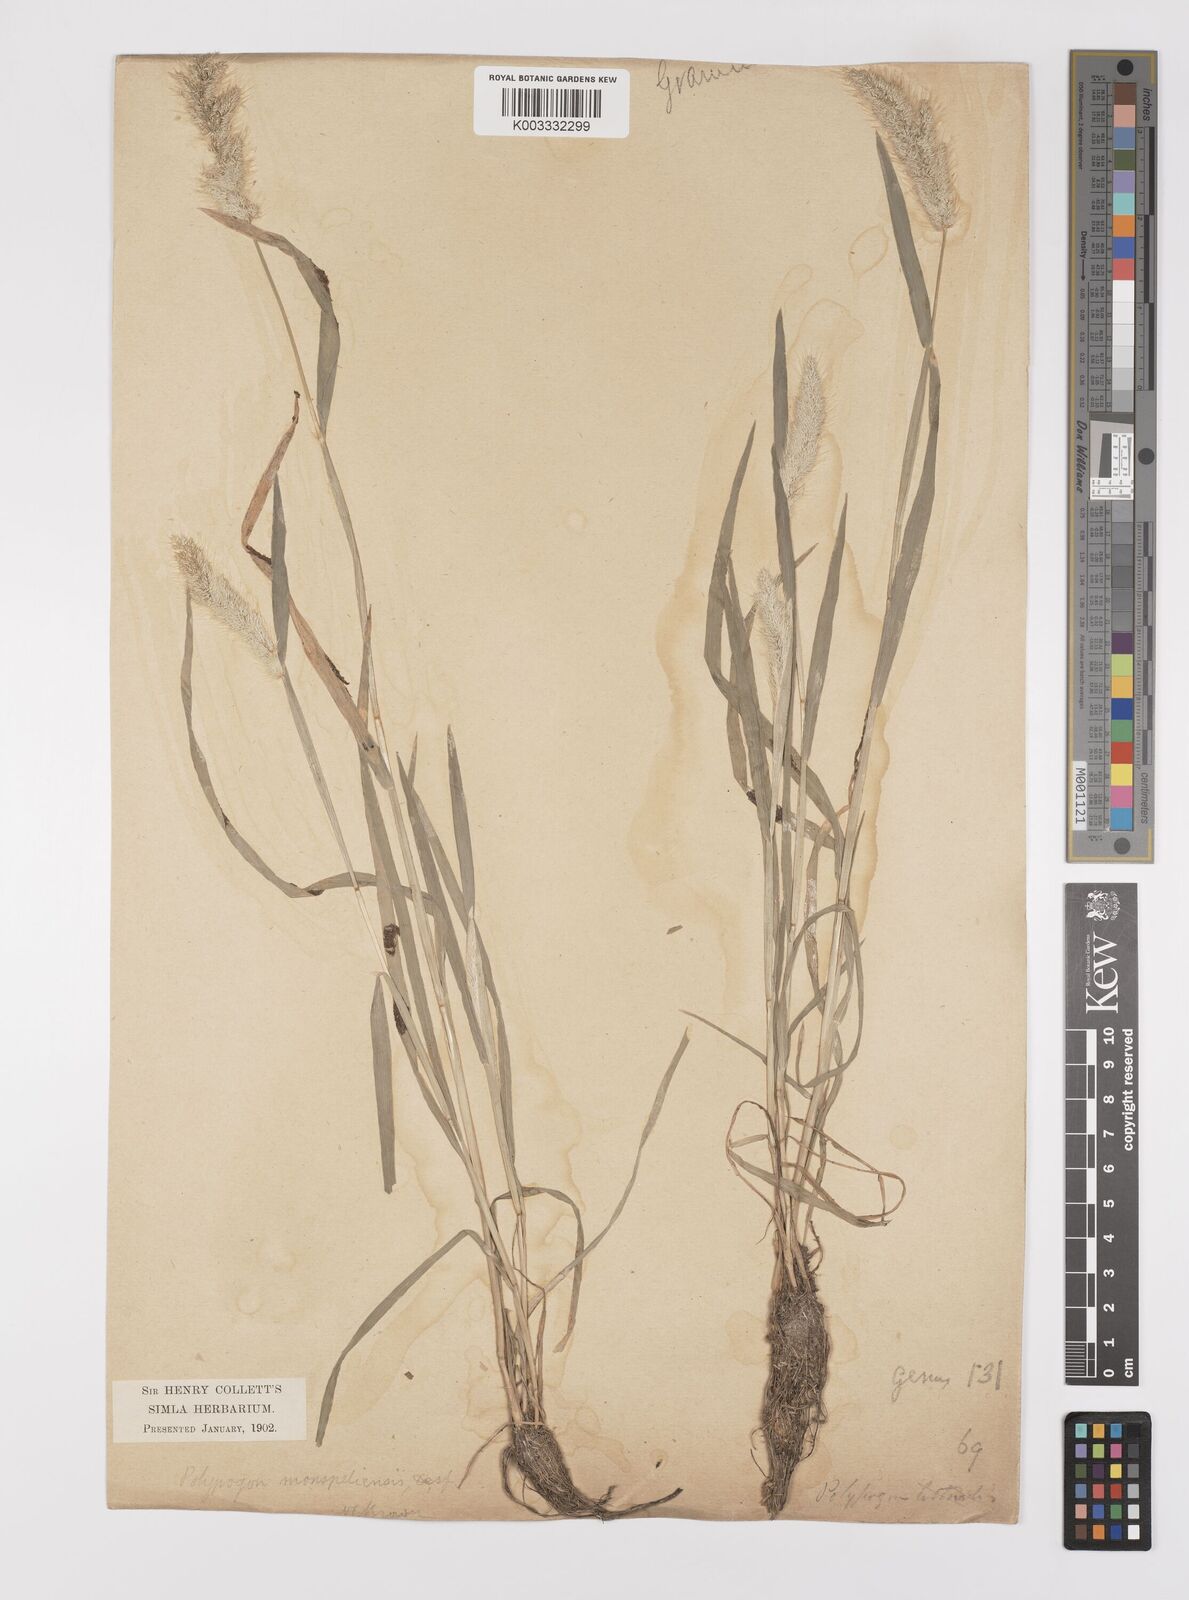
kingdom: Plantae
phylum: Tracheophyta
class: Liliopsida
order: Poales
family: Poaceae
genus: Polypogon
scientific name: Polypogon monspeliensis
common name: Annual rabbitsfoot grass
